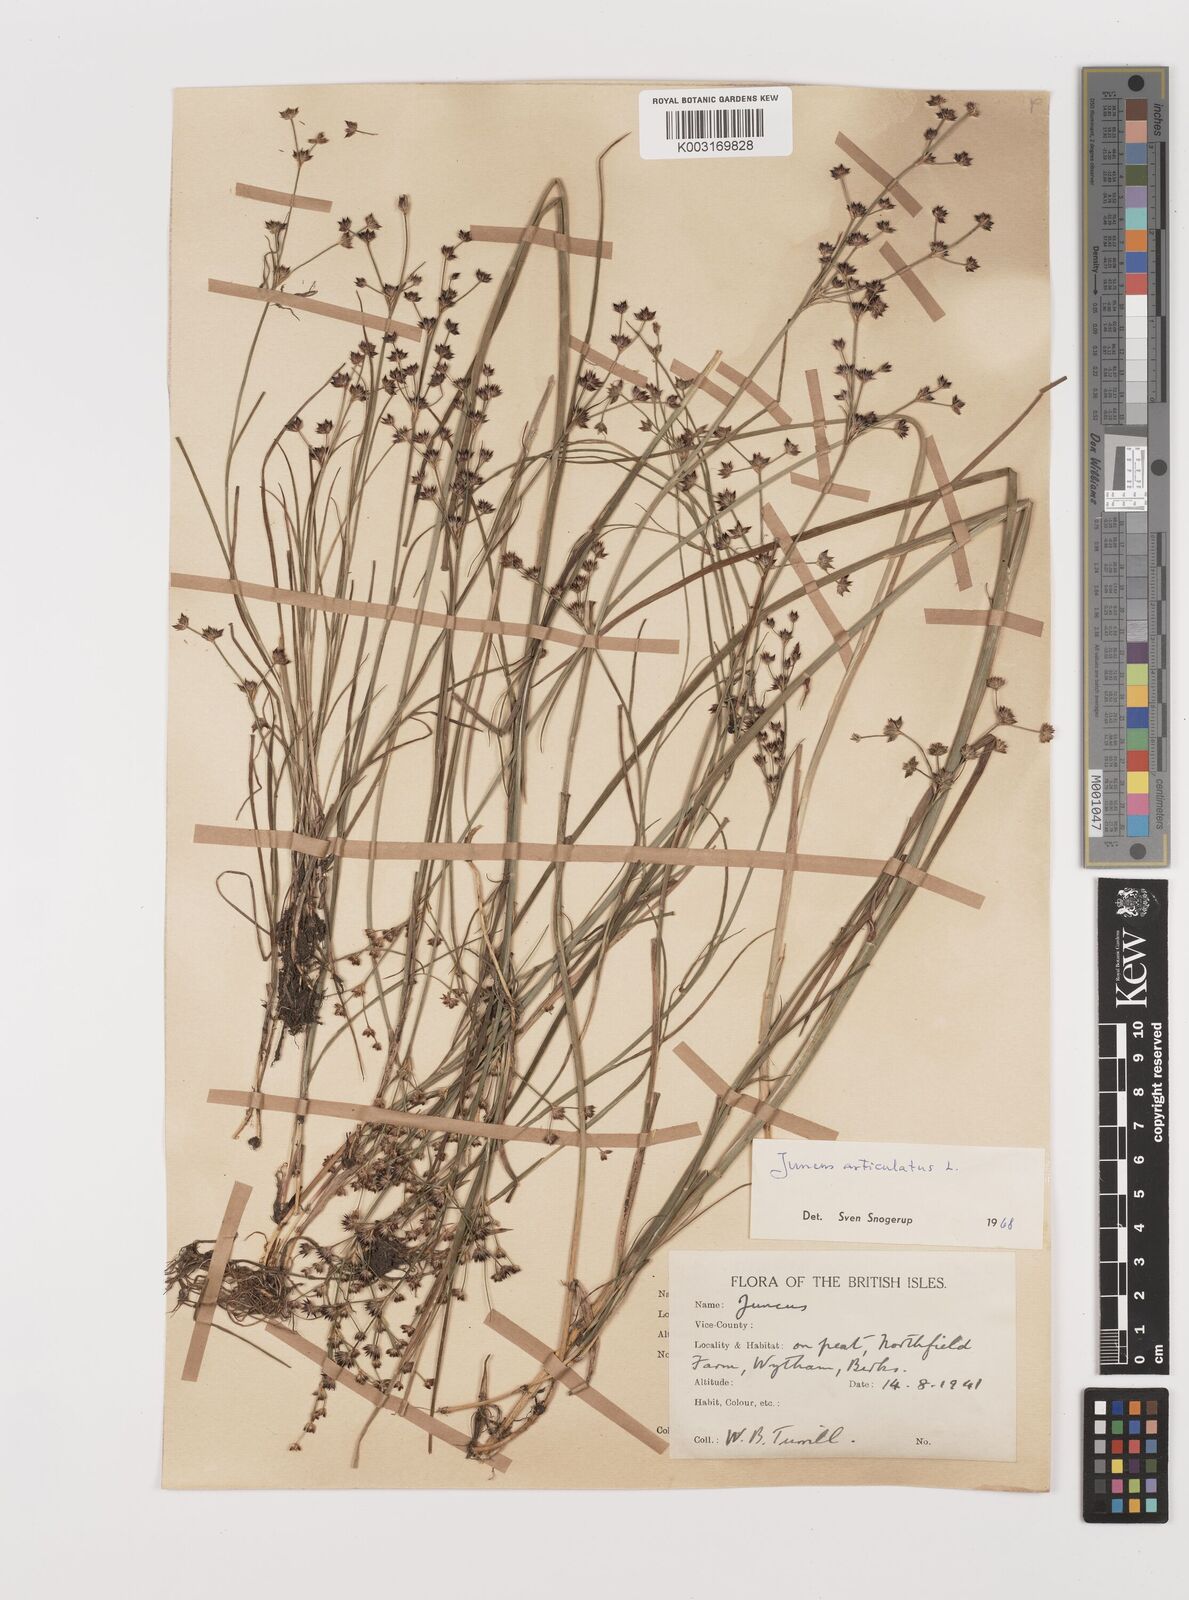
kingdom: Plantae
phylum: Tracheophyta
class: Liliopsida
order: Poales
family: Juncaceae
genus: Juncus
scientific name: Juncus articulatus
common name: Jointed rush
